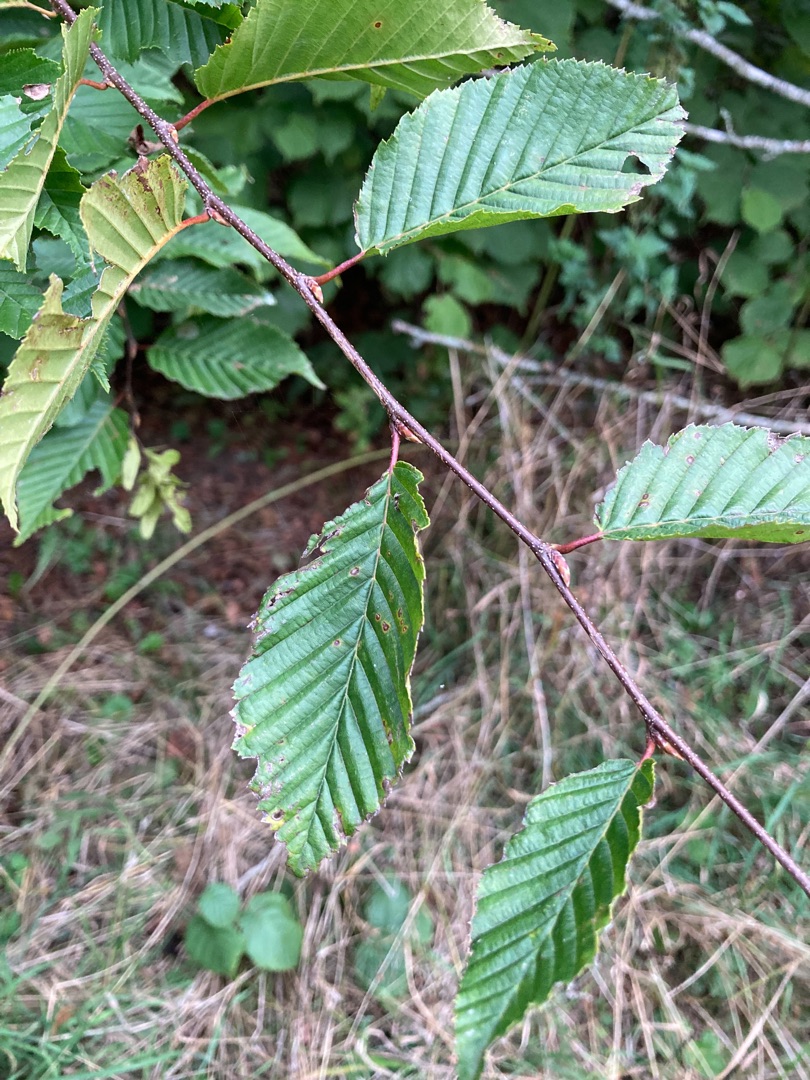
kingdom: Plantae
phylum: Tracheophyta
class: Magnoliopsida
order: Fagales
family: Betulaceae
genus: Carpinus
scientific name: Carpinus betulus
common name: Avnbøg
